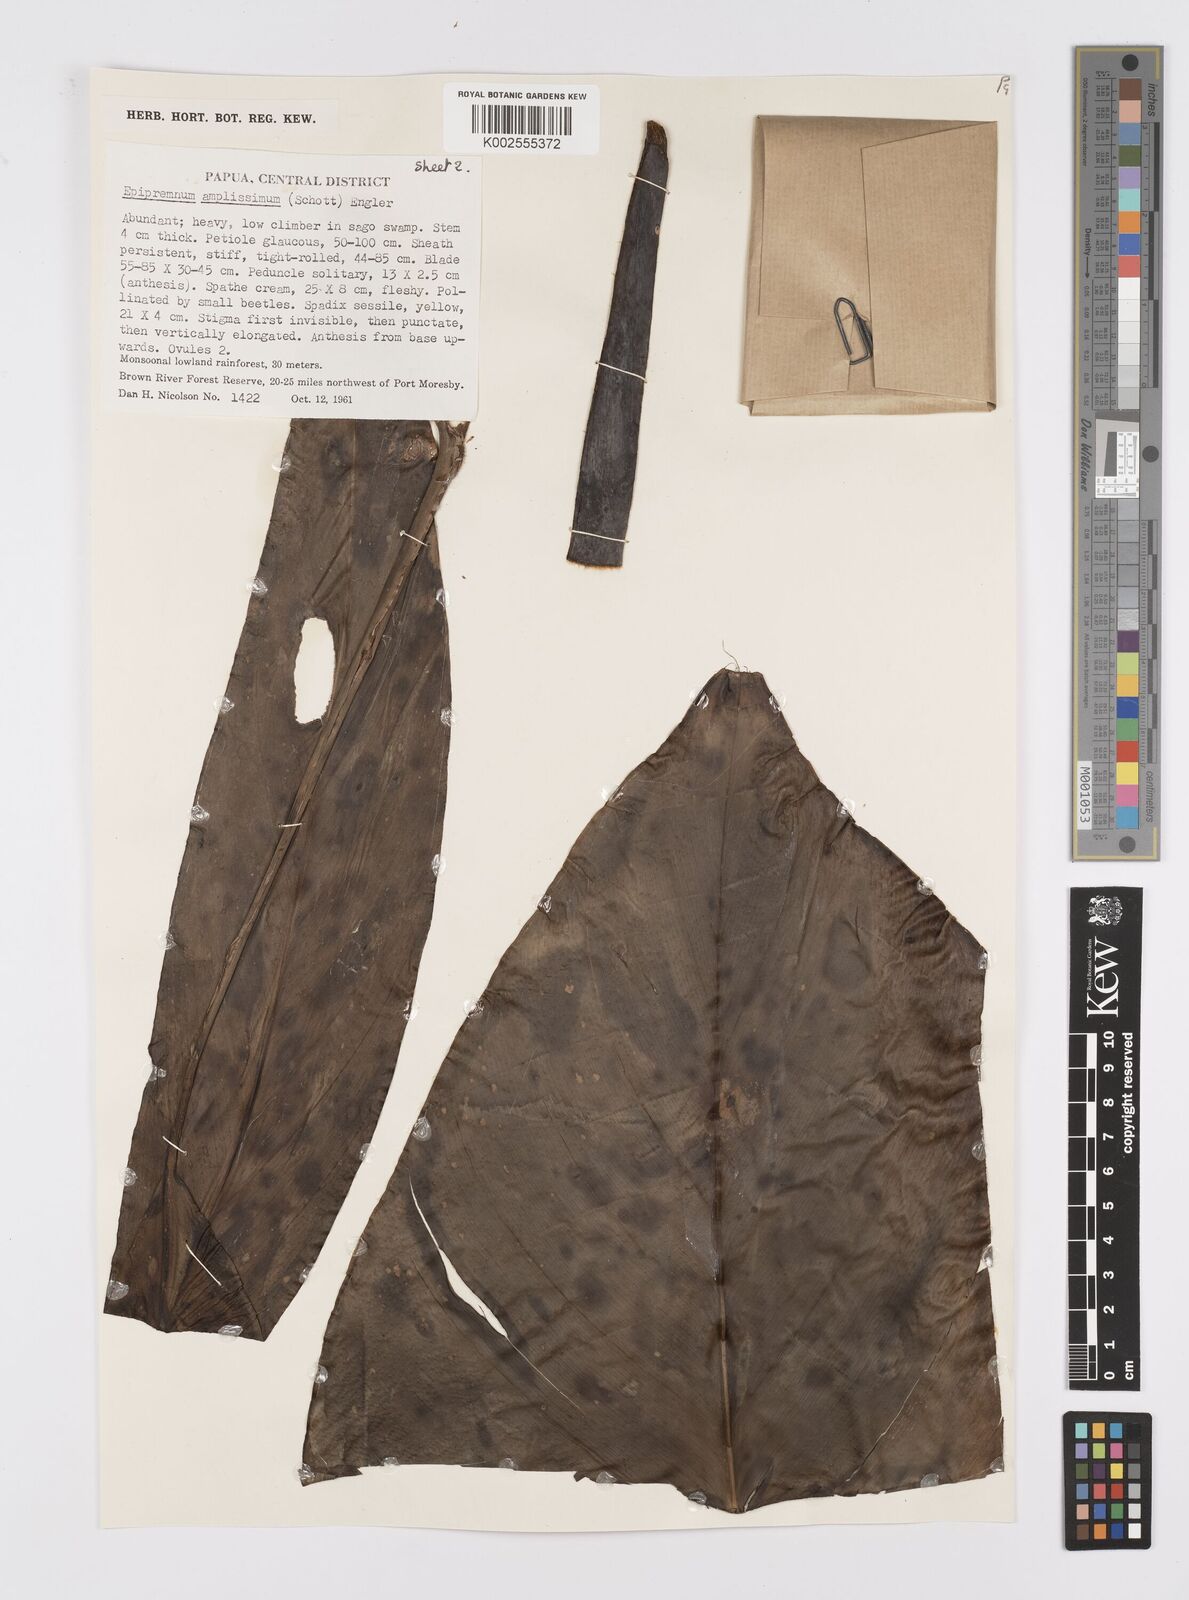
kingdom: Plantae
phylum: Tracheophyta
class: Liliopsida
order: Alismatales
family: Araceae
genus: Epipremnum
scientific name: Epipremnum amplissimum
